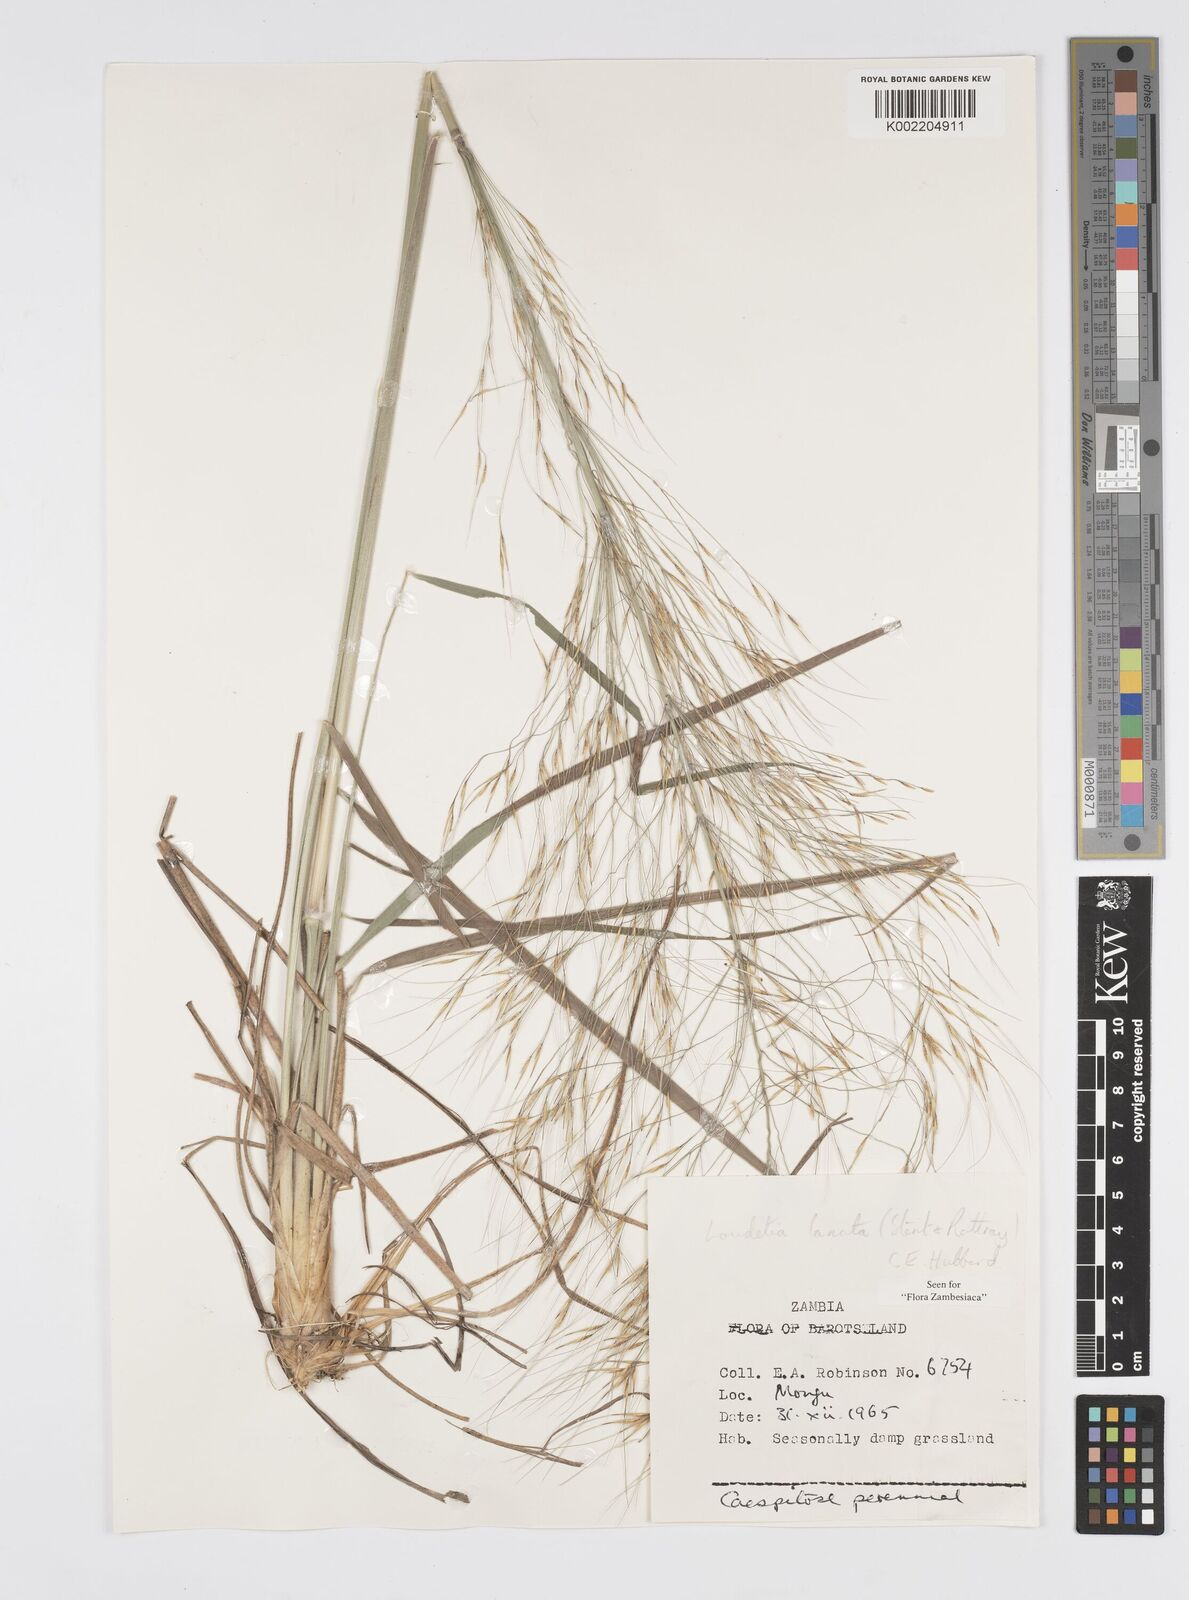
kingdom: Plantae
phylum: Tracheophyta
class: Liliopsida
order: Poales
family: Poaceae
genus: Loudetia
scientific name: Loudetia lanata
